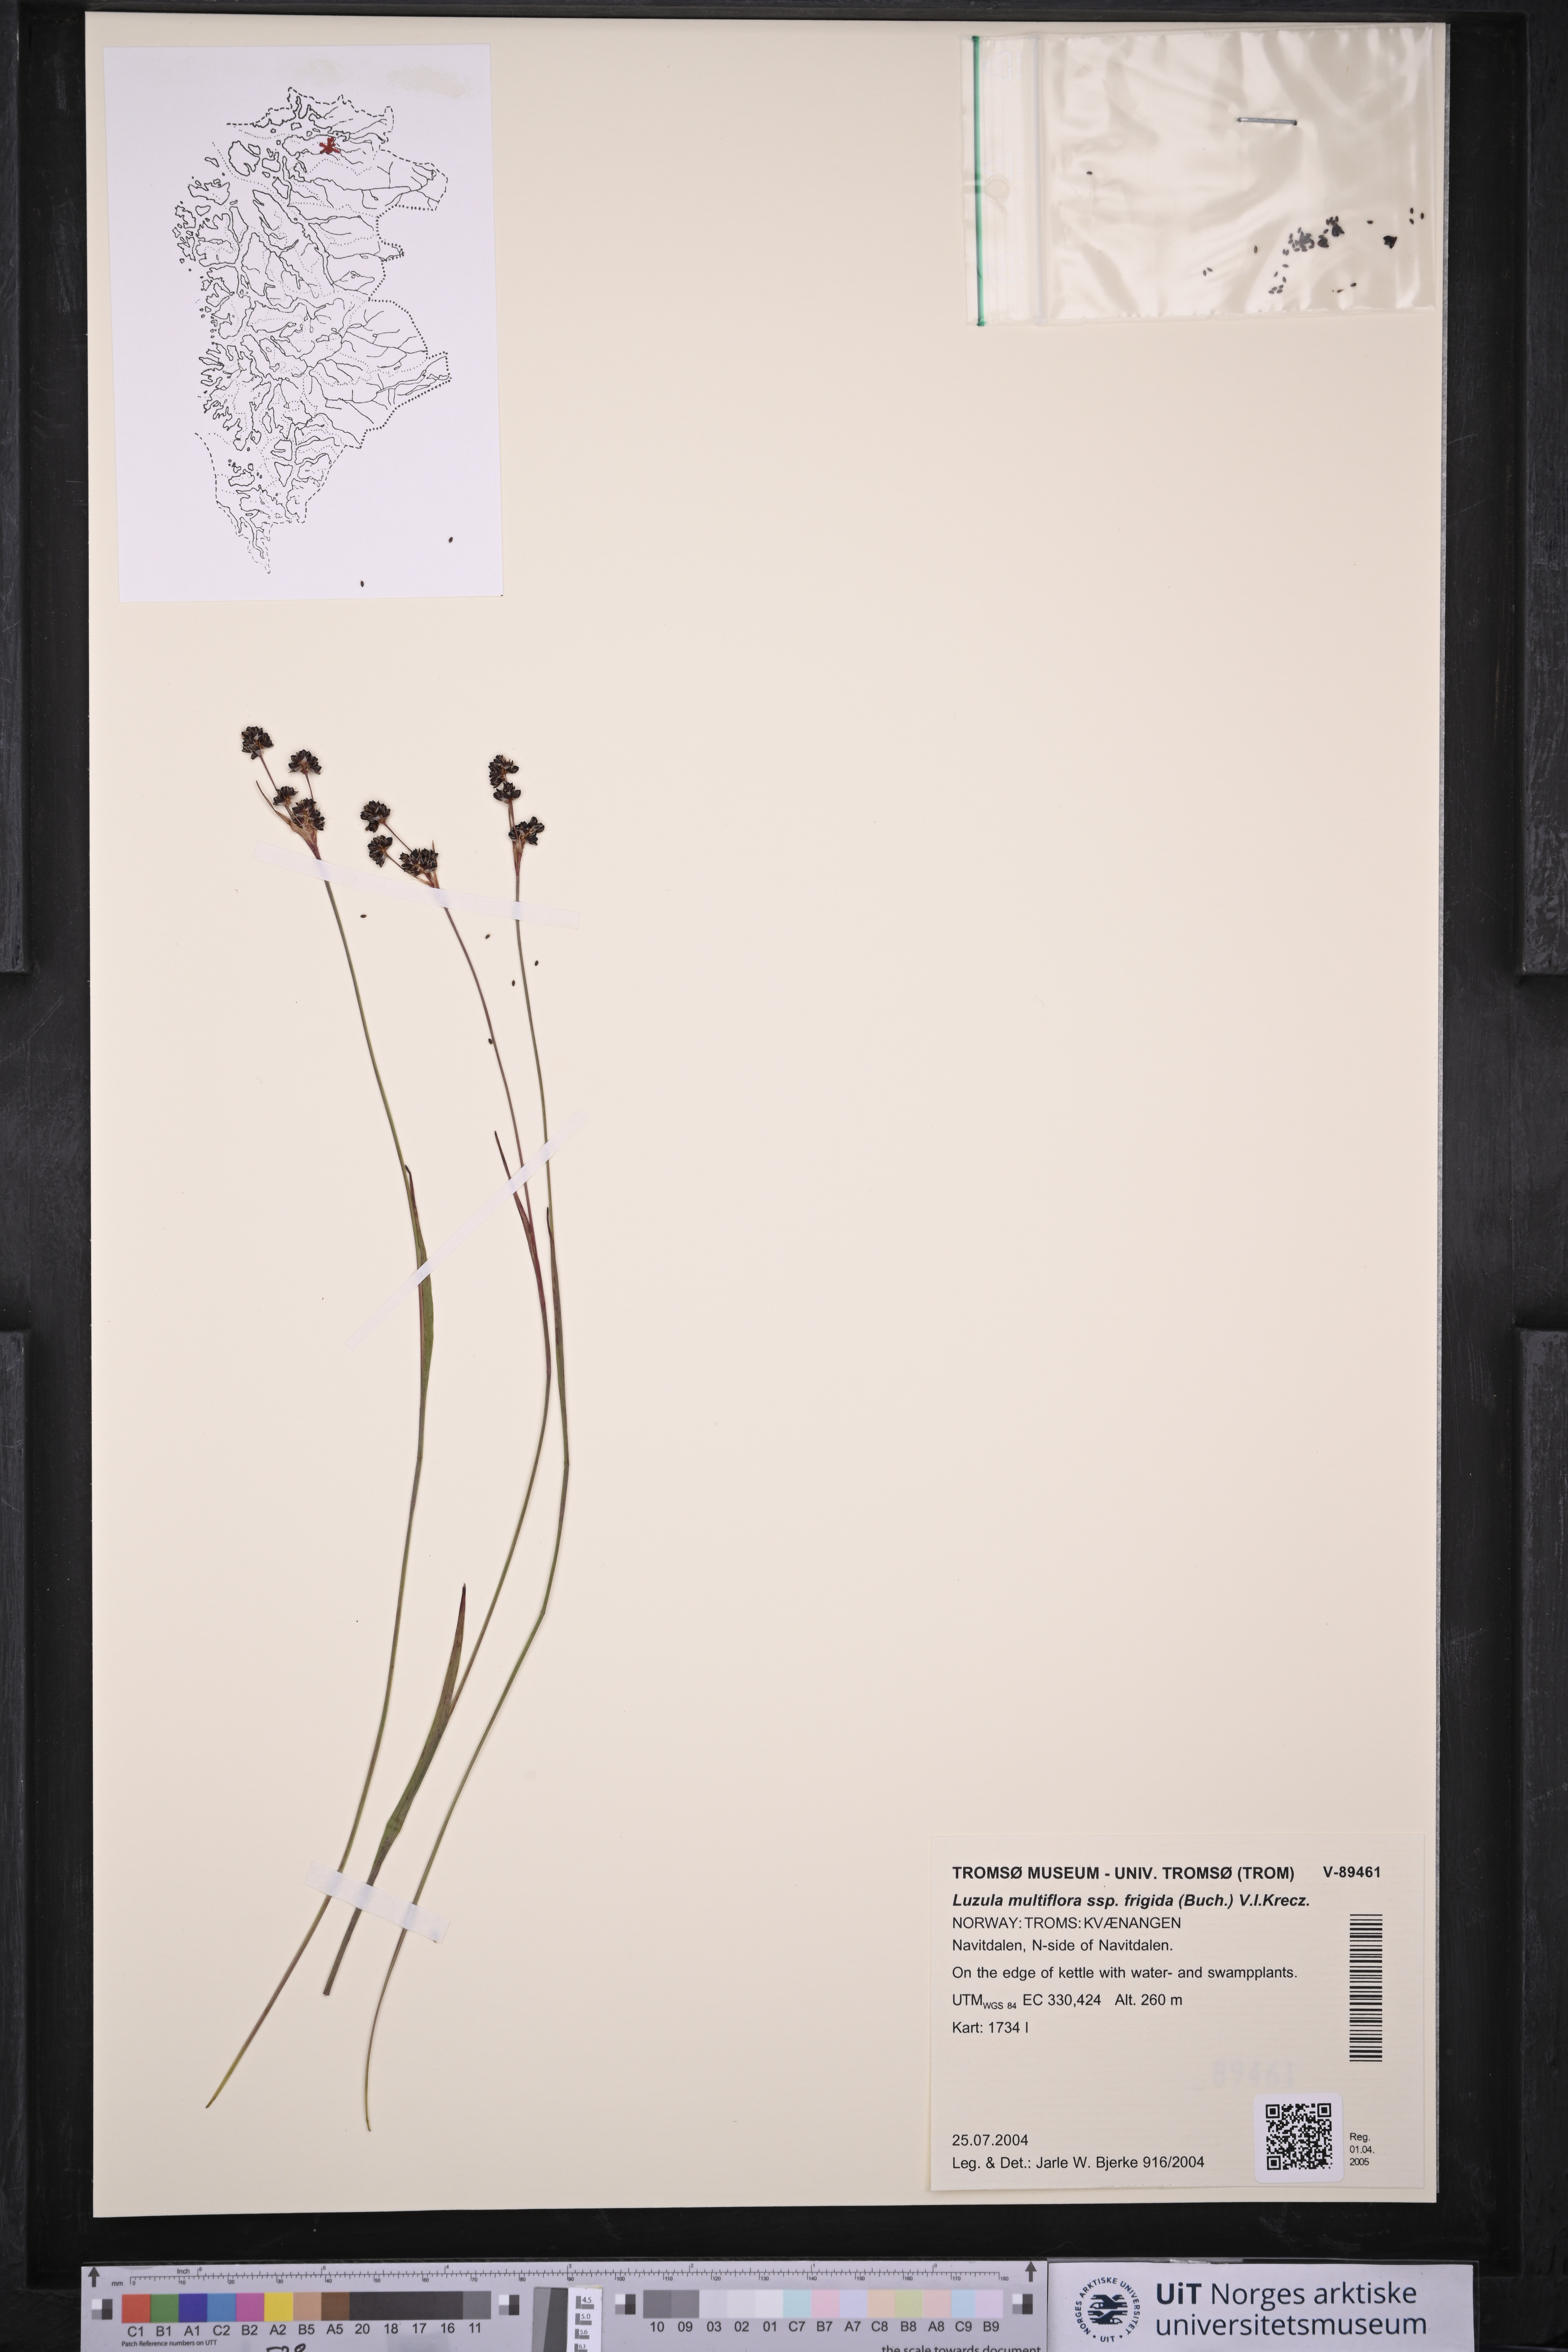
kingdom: Plantae
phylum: Tracheophyta
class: Liliopsida
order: Poales
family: Juncaceae
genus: Luzula
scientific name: Luzula multiflora
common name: Heath wood-rush
